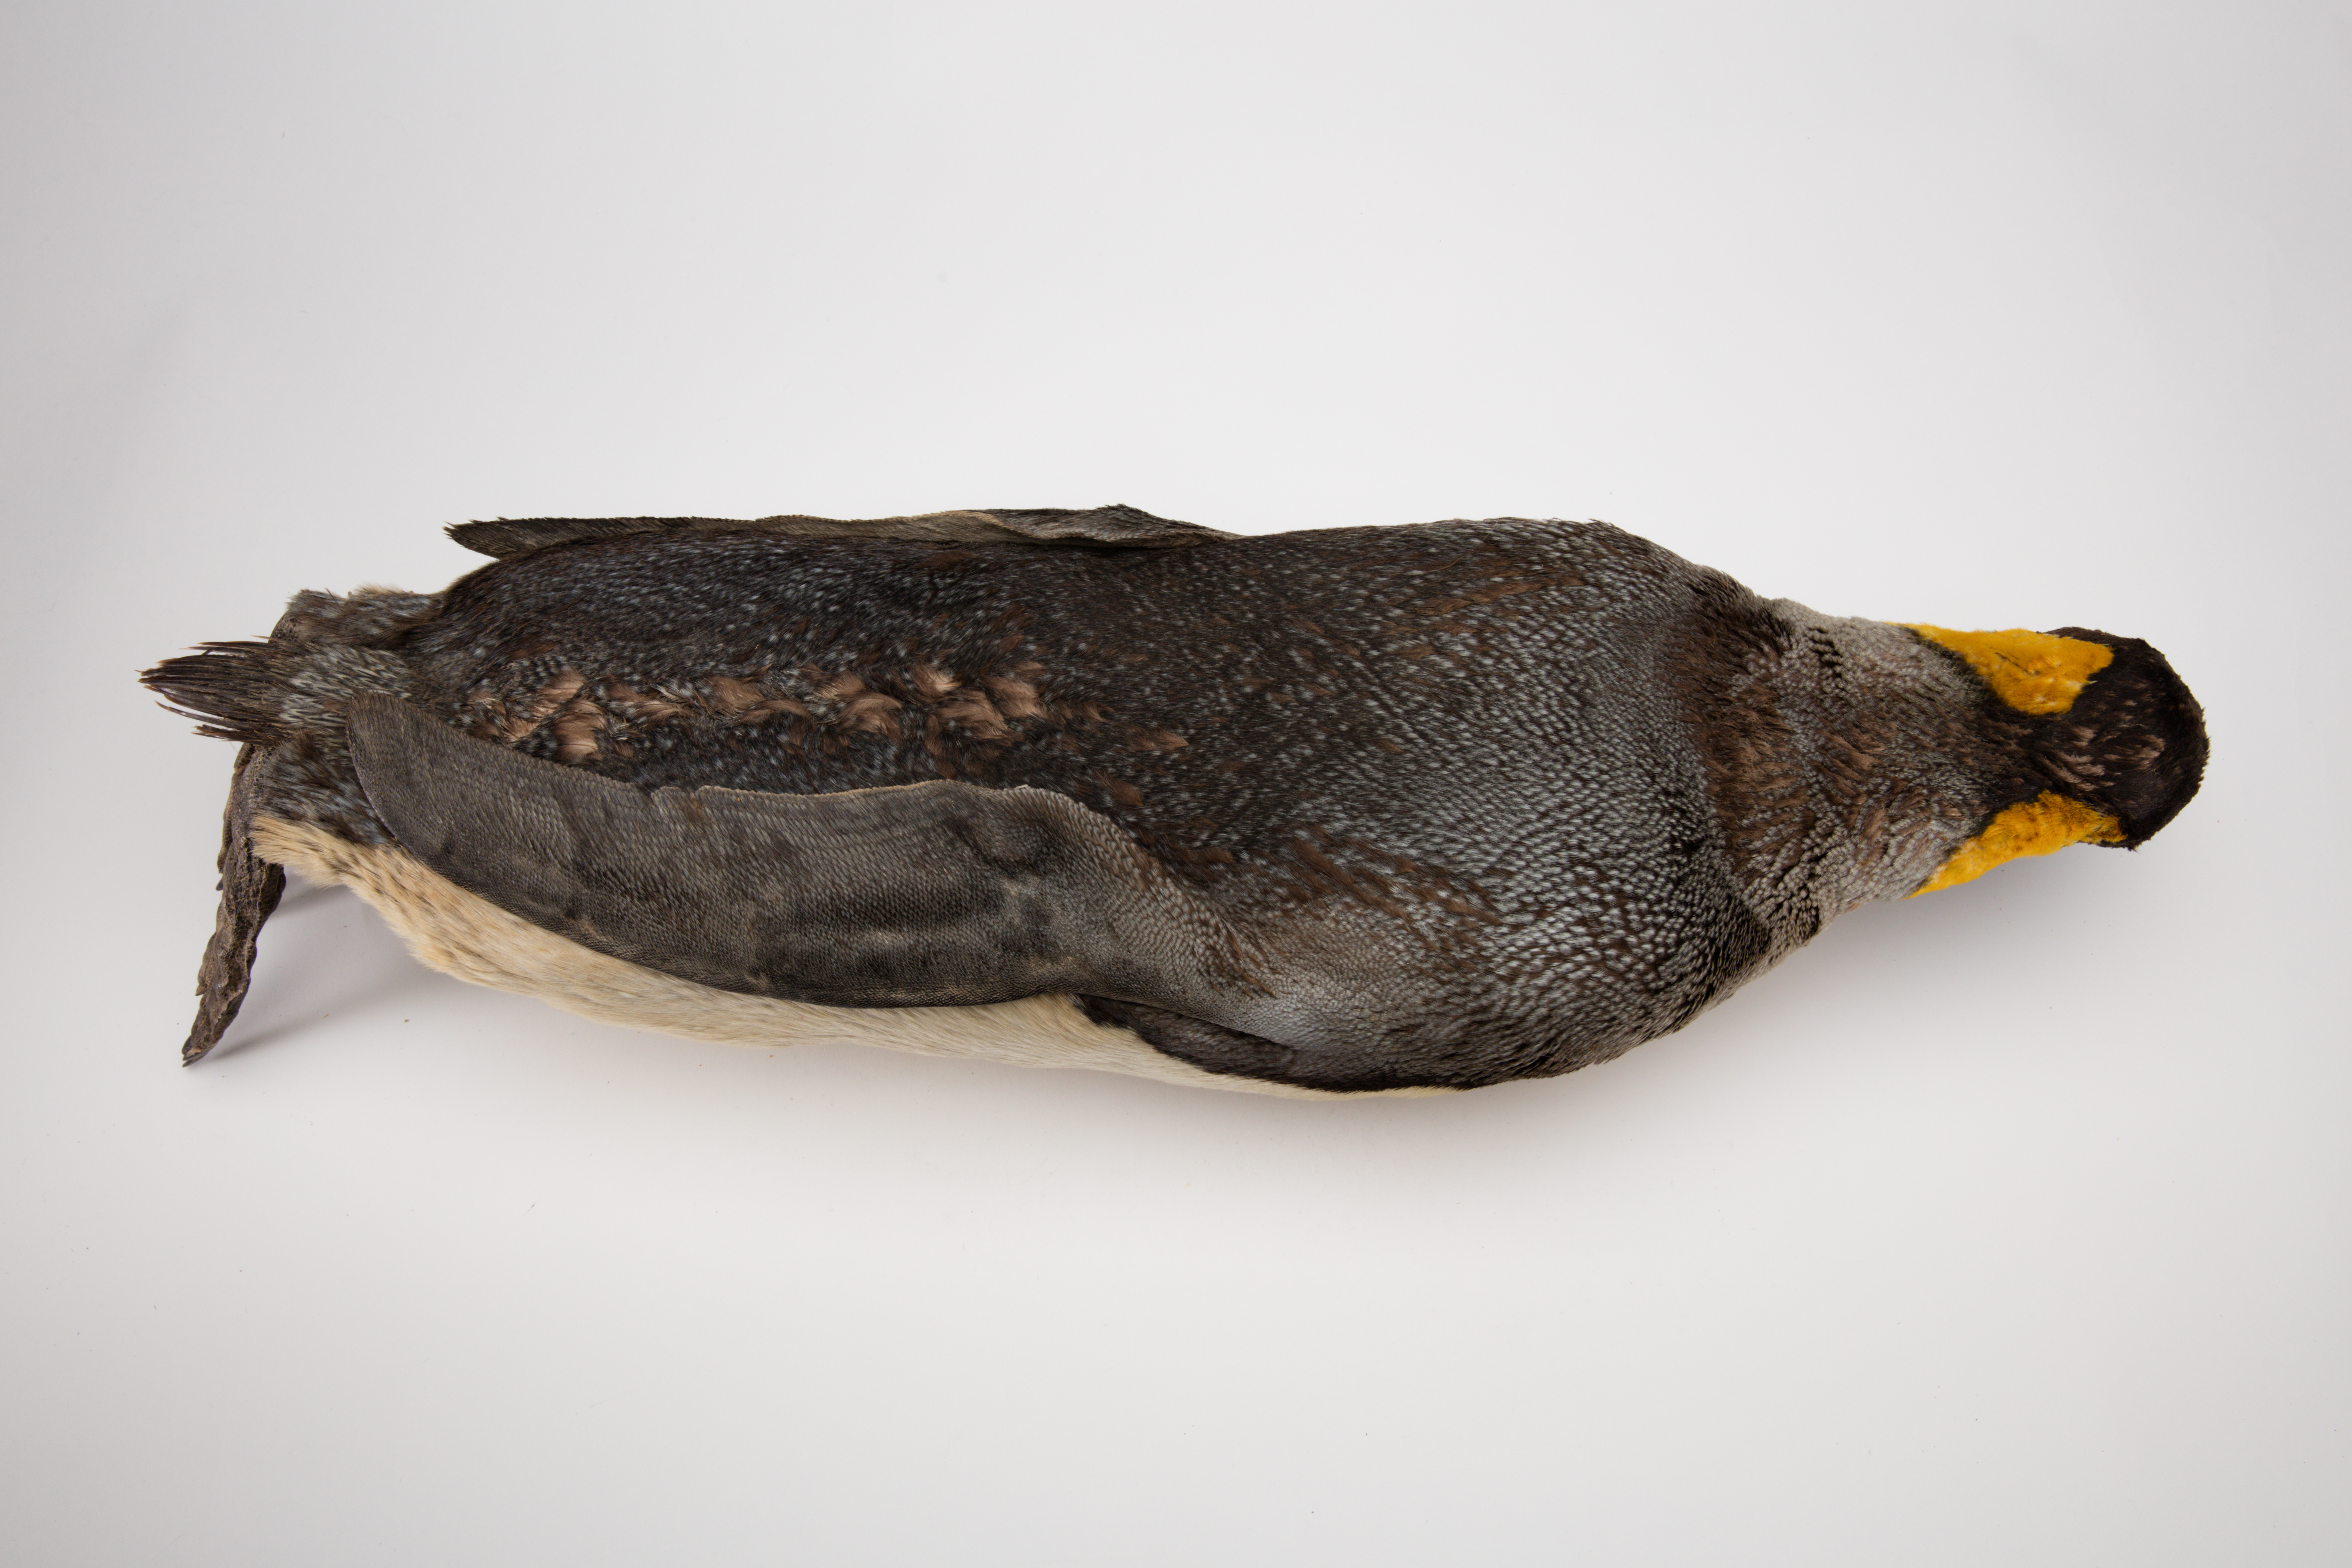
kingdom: Animalia
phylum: Chordata
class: Aves
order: Sphenisciformes
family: Spheniscidae
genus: Aptenodytes
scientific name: Aptenodytes patagonicus
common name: King penguin
